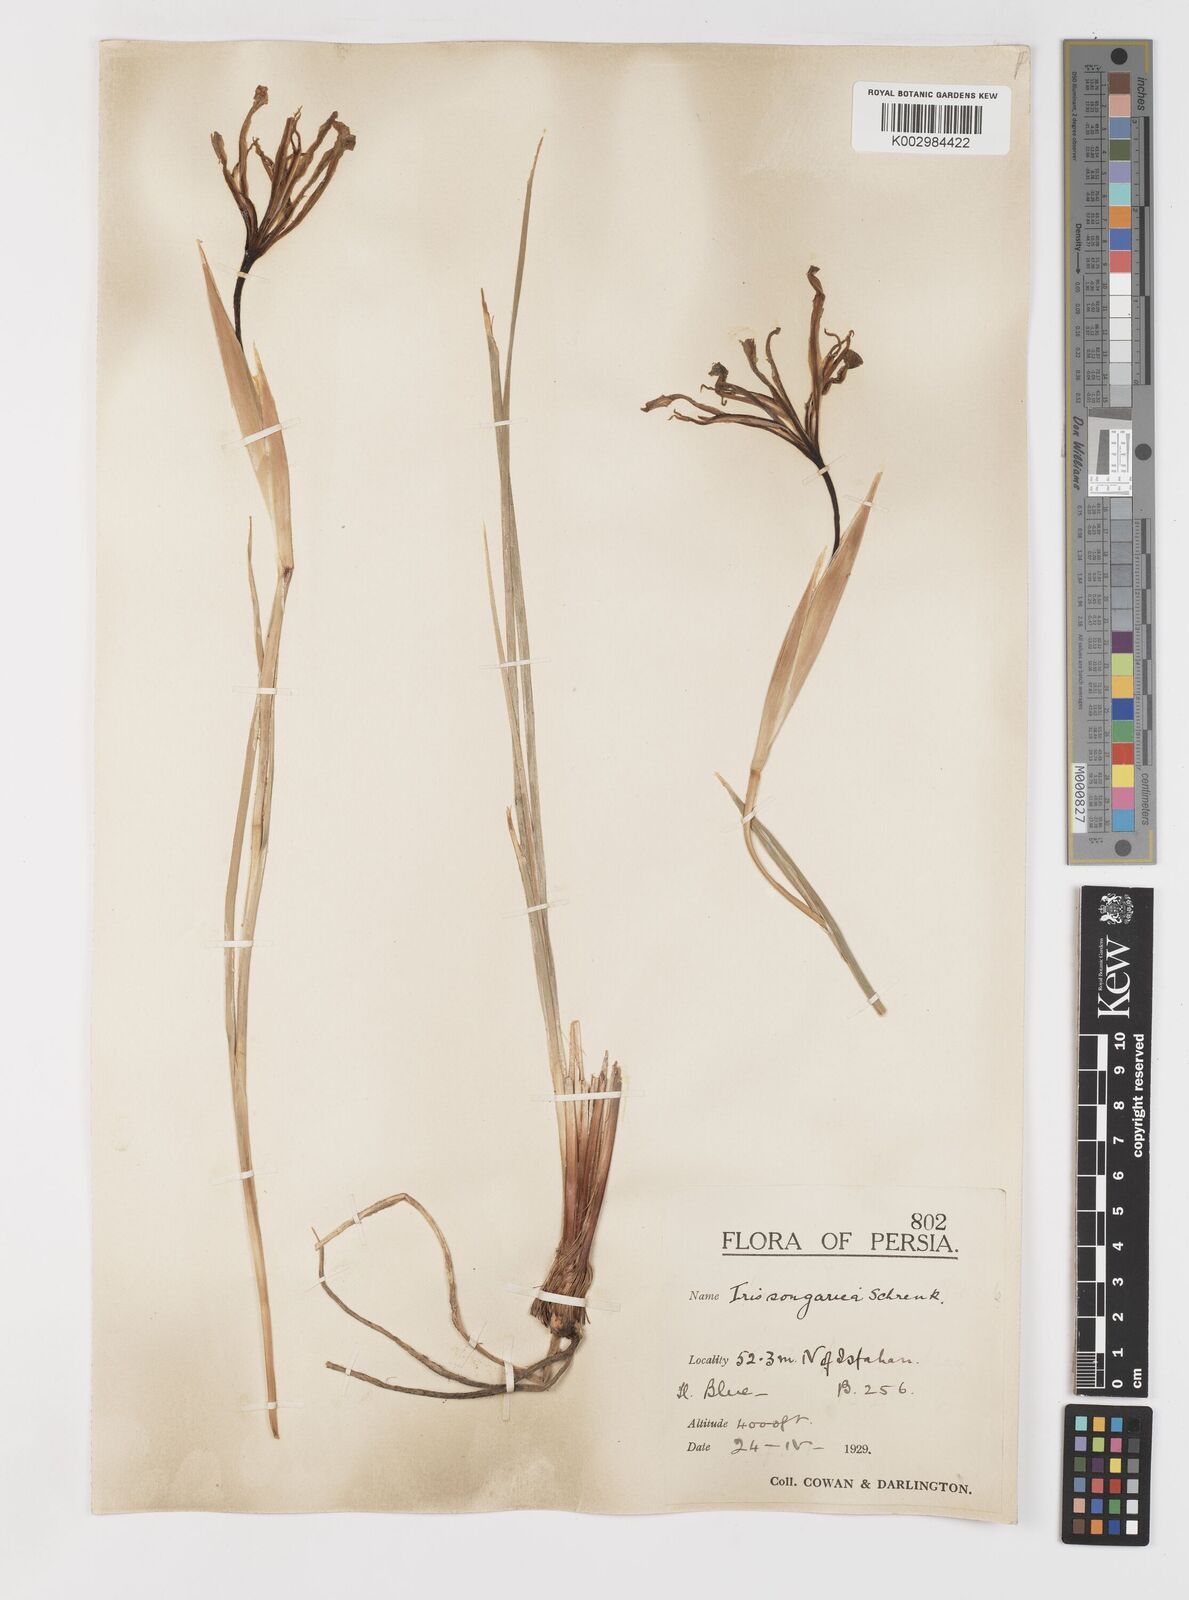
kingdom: Plantae
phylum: Tracheophyta
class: Liliopsida
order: Asparagales
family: Iridaceae
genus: Iris
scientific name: Iris songarica
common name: Songar iris
